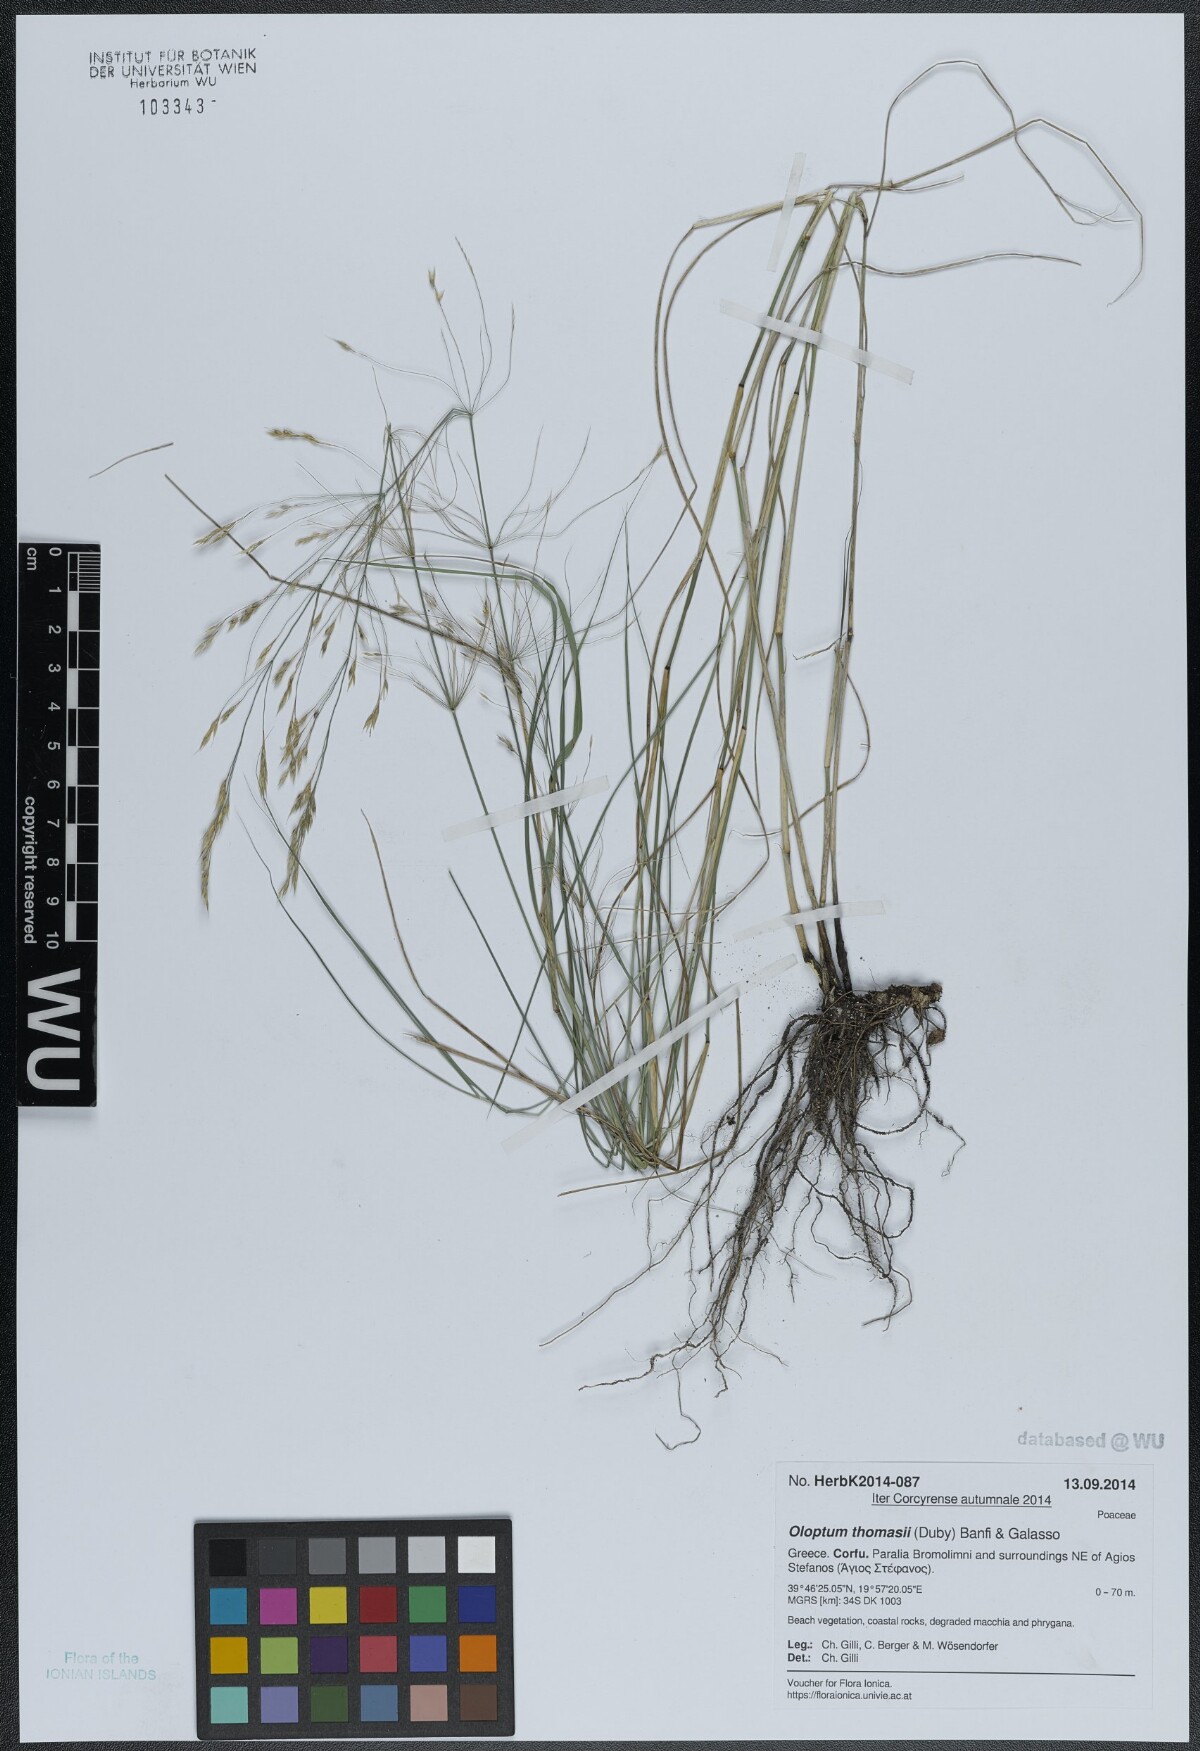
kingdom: Plantae
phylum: Tracheophyta
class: Liliopsida
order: Poales
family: Poaceae
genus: Oloptum
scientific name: Oloptum thomasii
